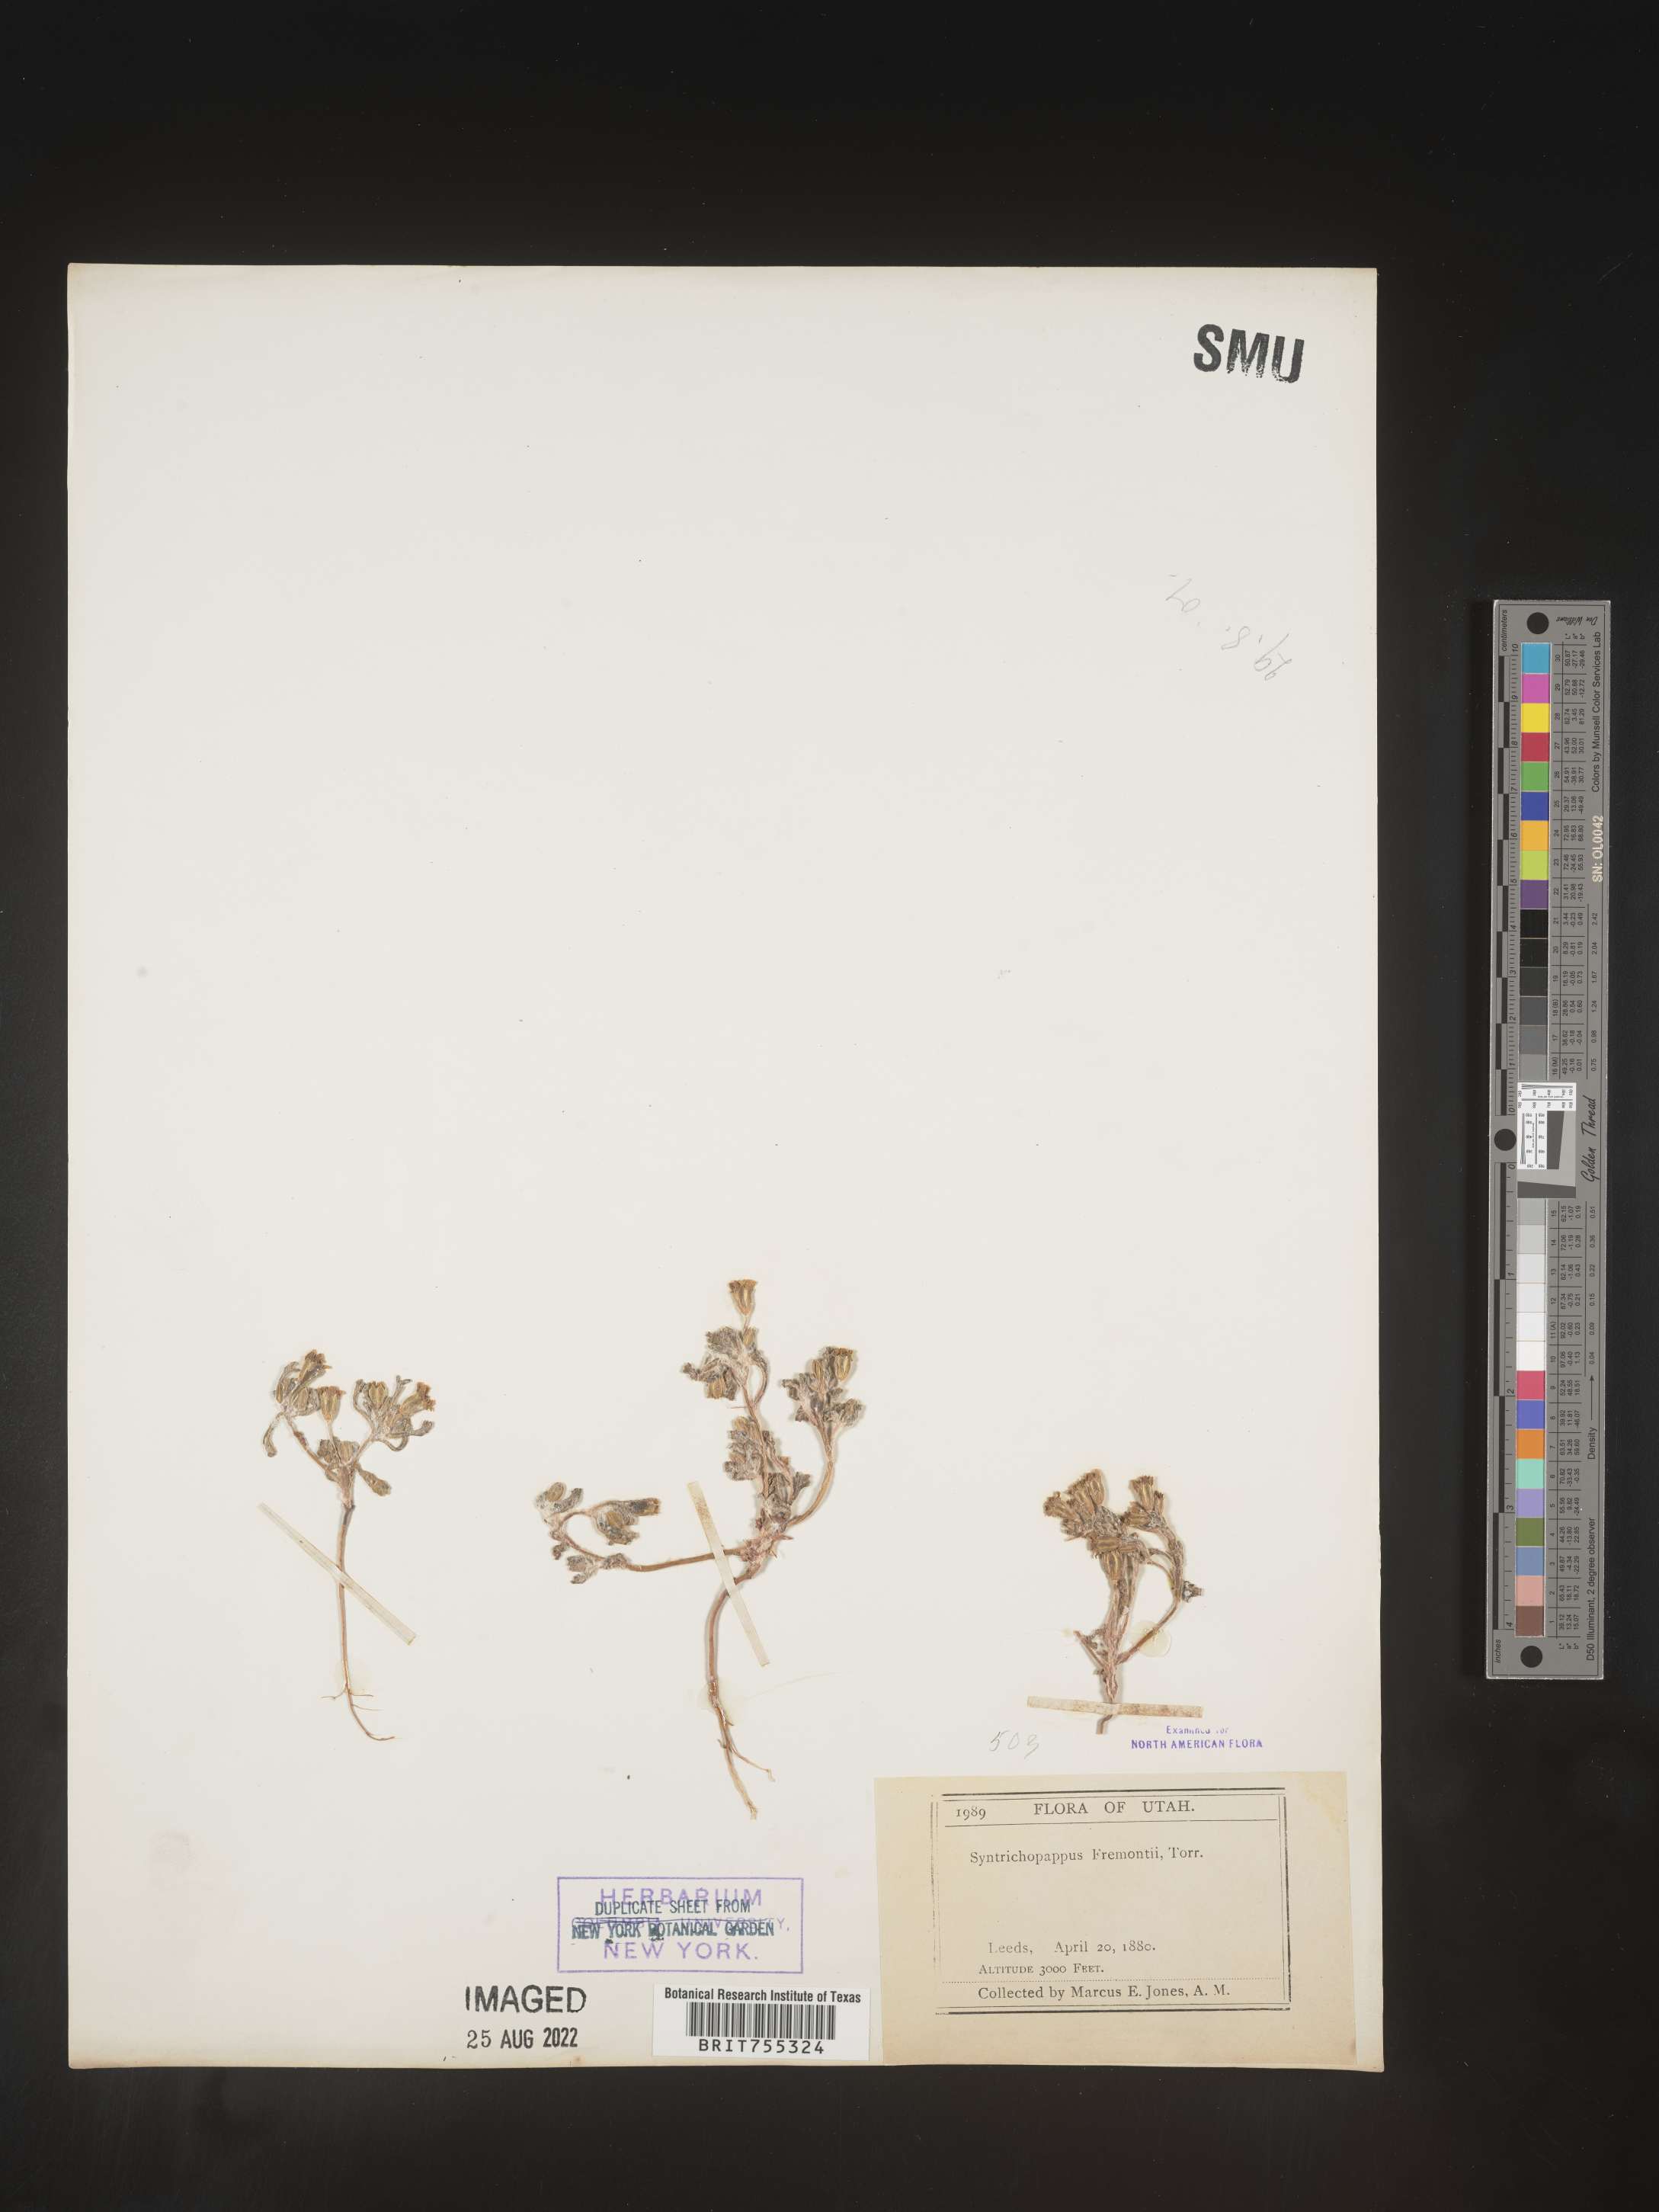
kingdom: Plantae
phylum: Tracheophyta
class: Magnoliopsida
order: Asterales
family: Asteraceae
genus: Syntrichopappus
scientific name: Syntrichopappus
